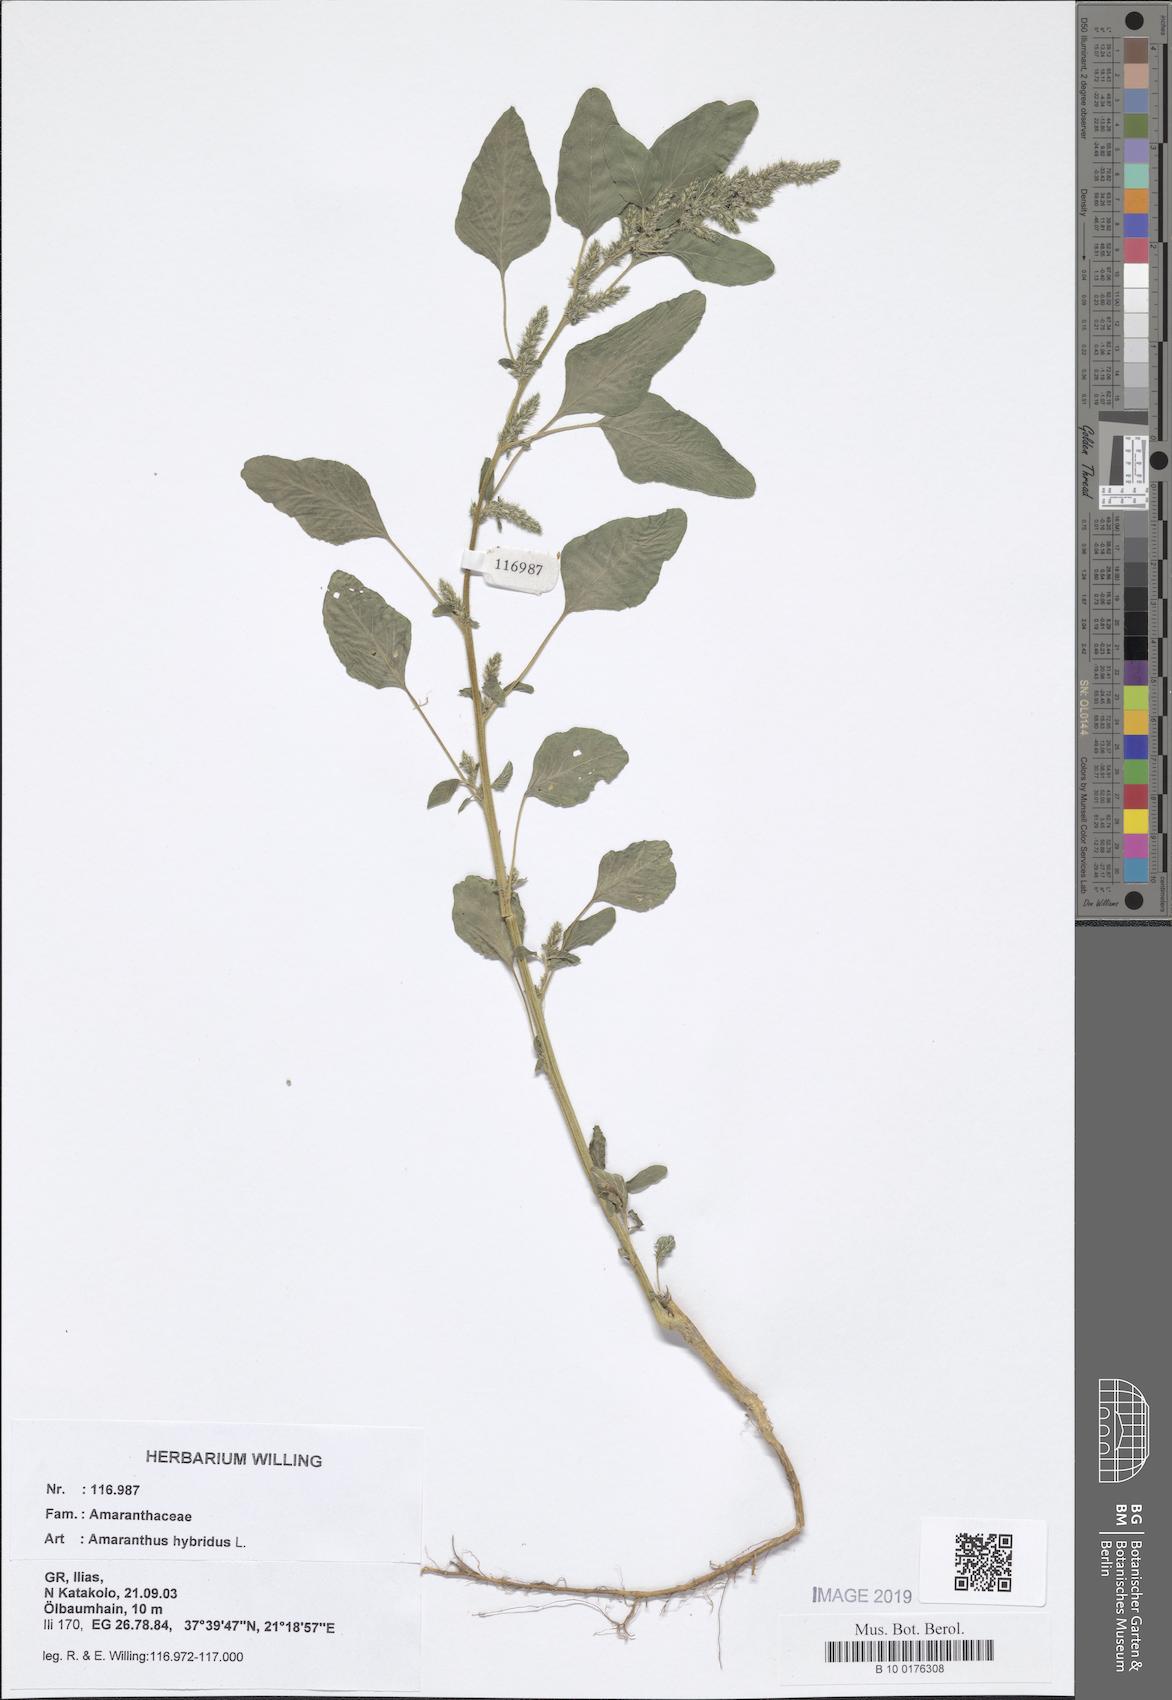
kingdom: Plantae
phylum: Tracheophyta
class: Magnoliopsida
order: Caryophyllales
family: Amaranthaceae
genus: Amaranthus
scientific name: Amaranthus hybridus
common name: Green amaranth
